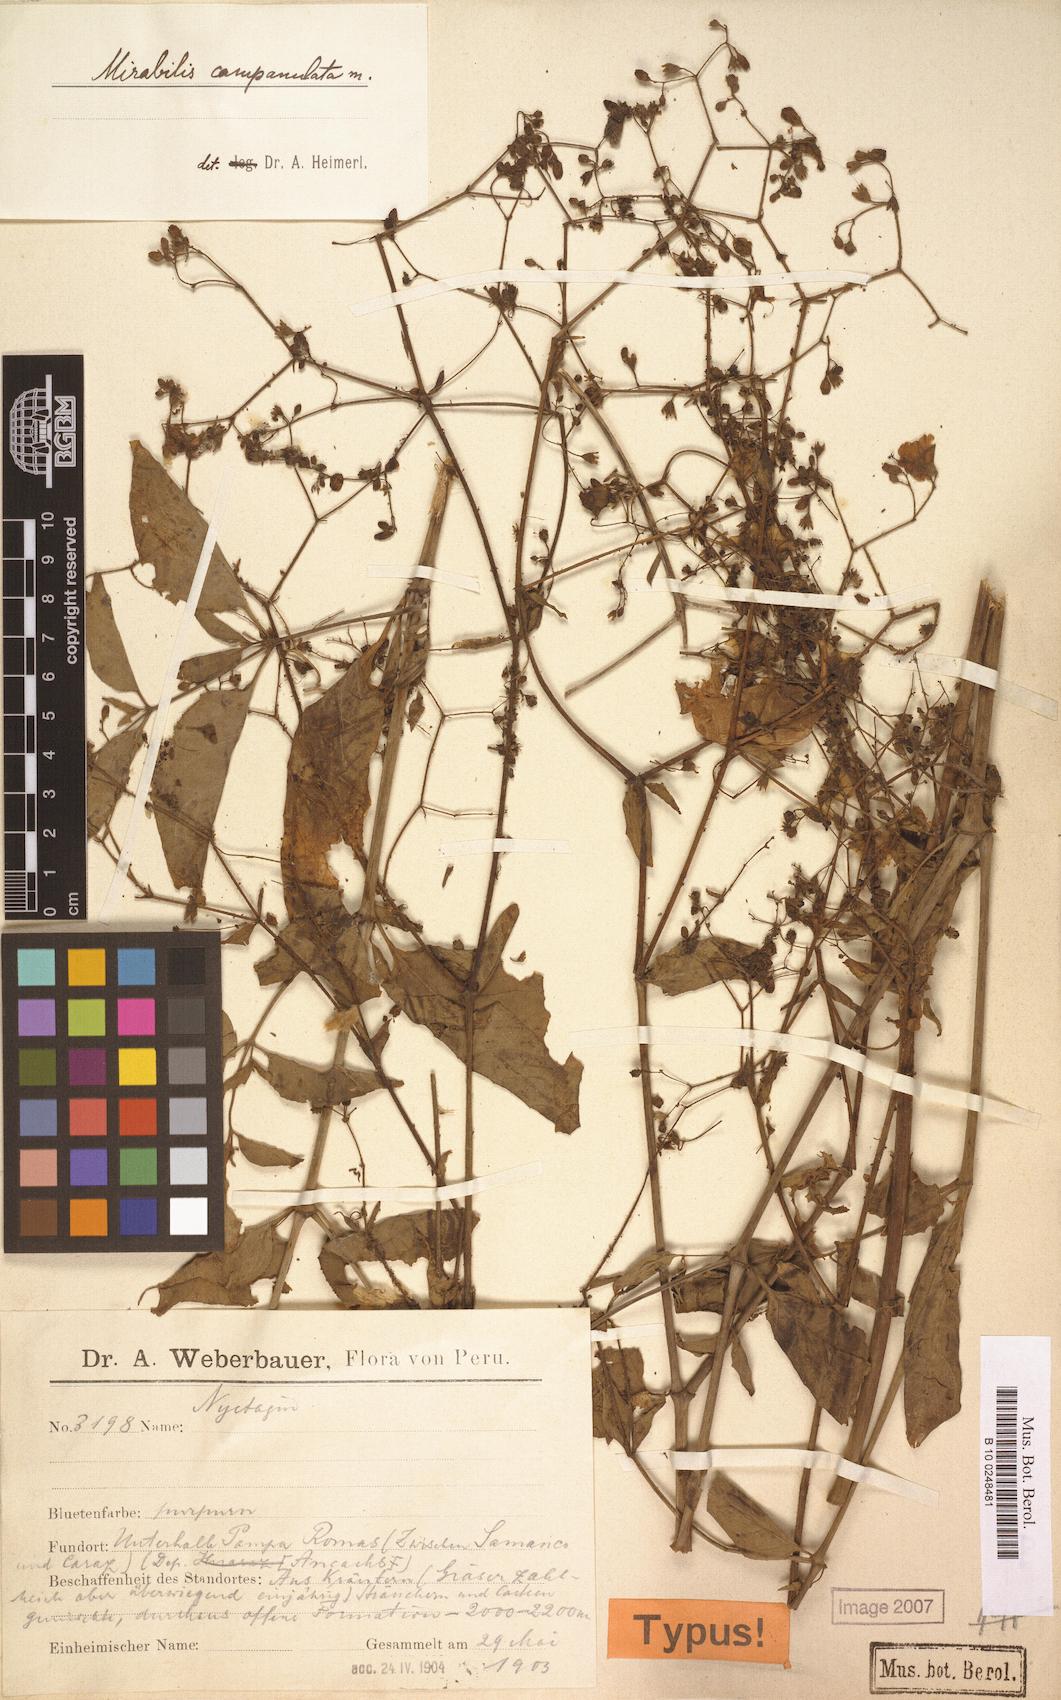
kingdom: Plantae
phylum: Tracheophyta
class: Magnoliopsida
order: Caryophyllales
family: Nyctaginaceae
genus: Mirabilis
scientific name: Mirabilis campanulata
